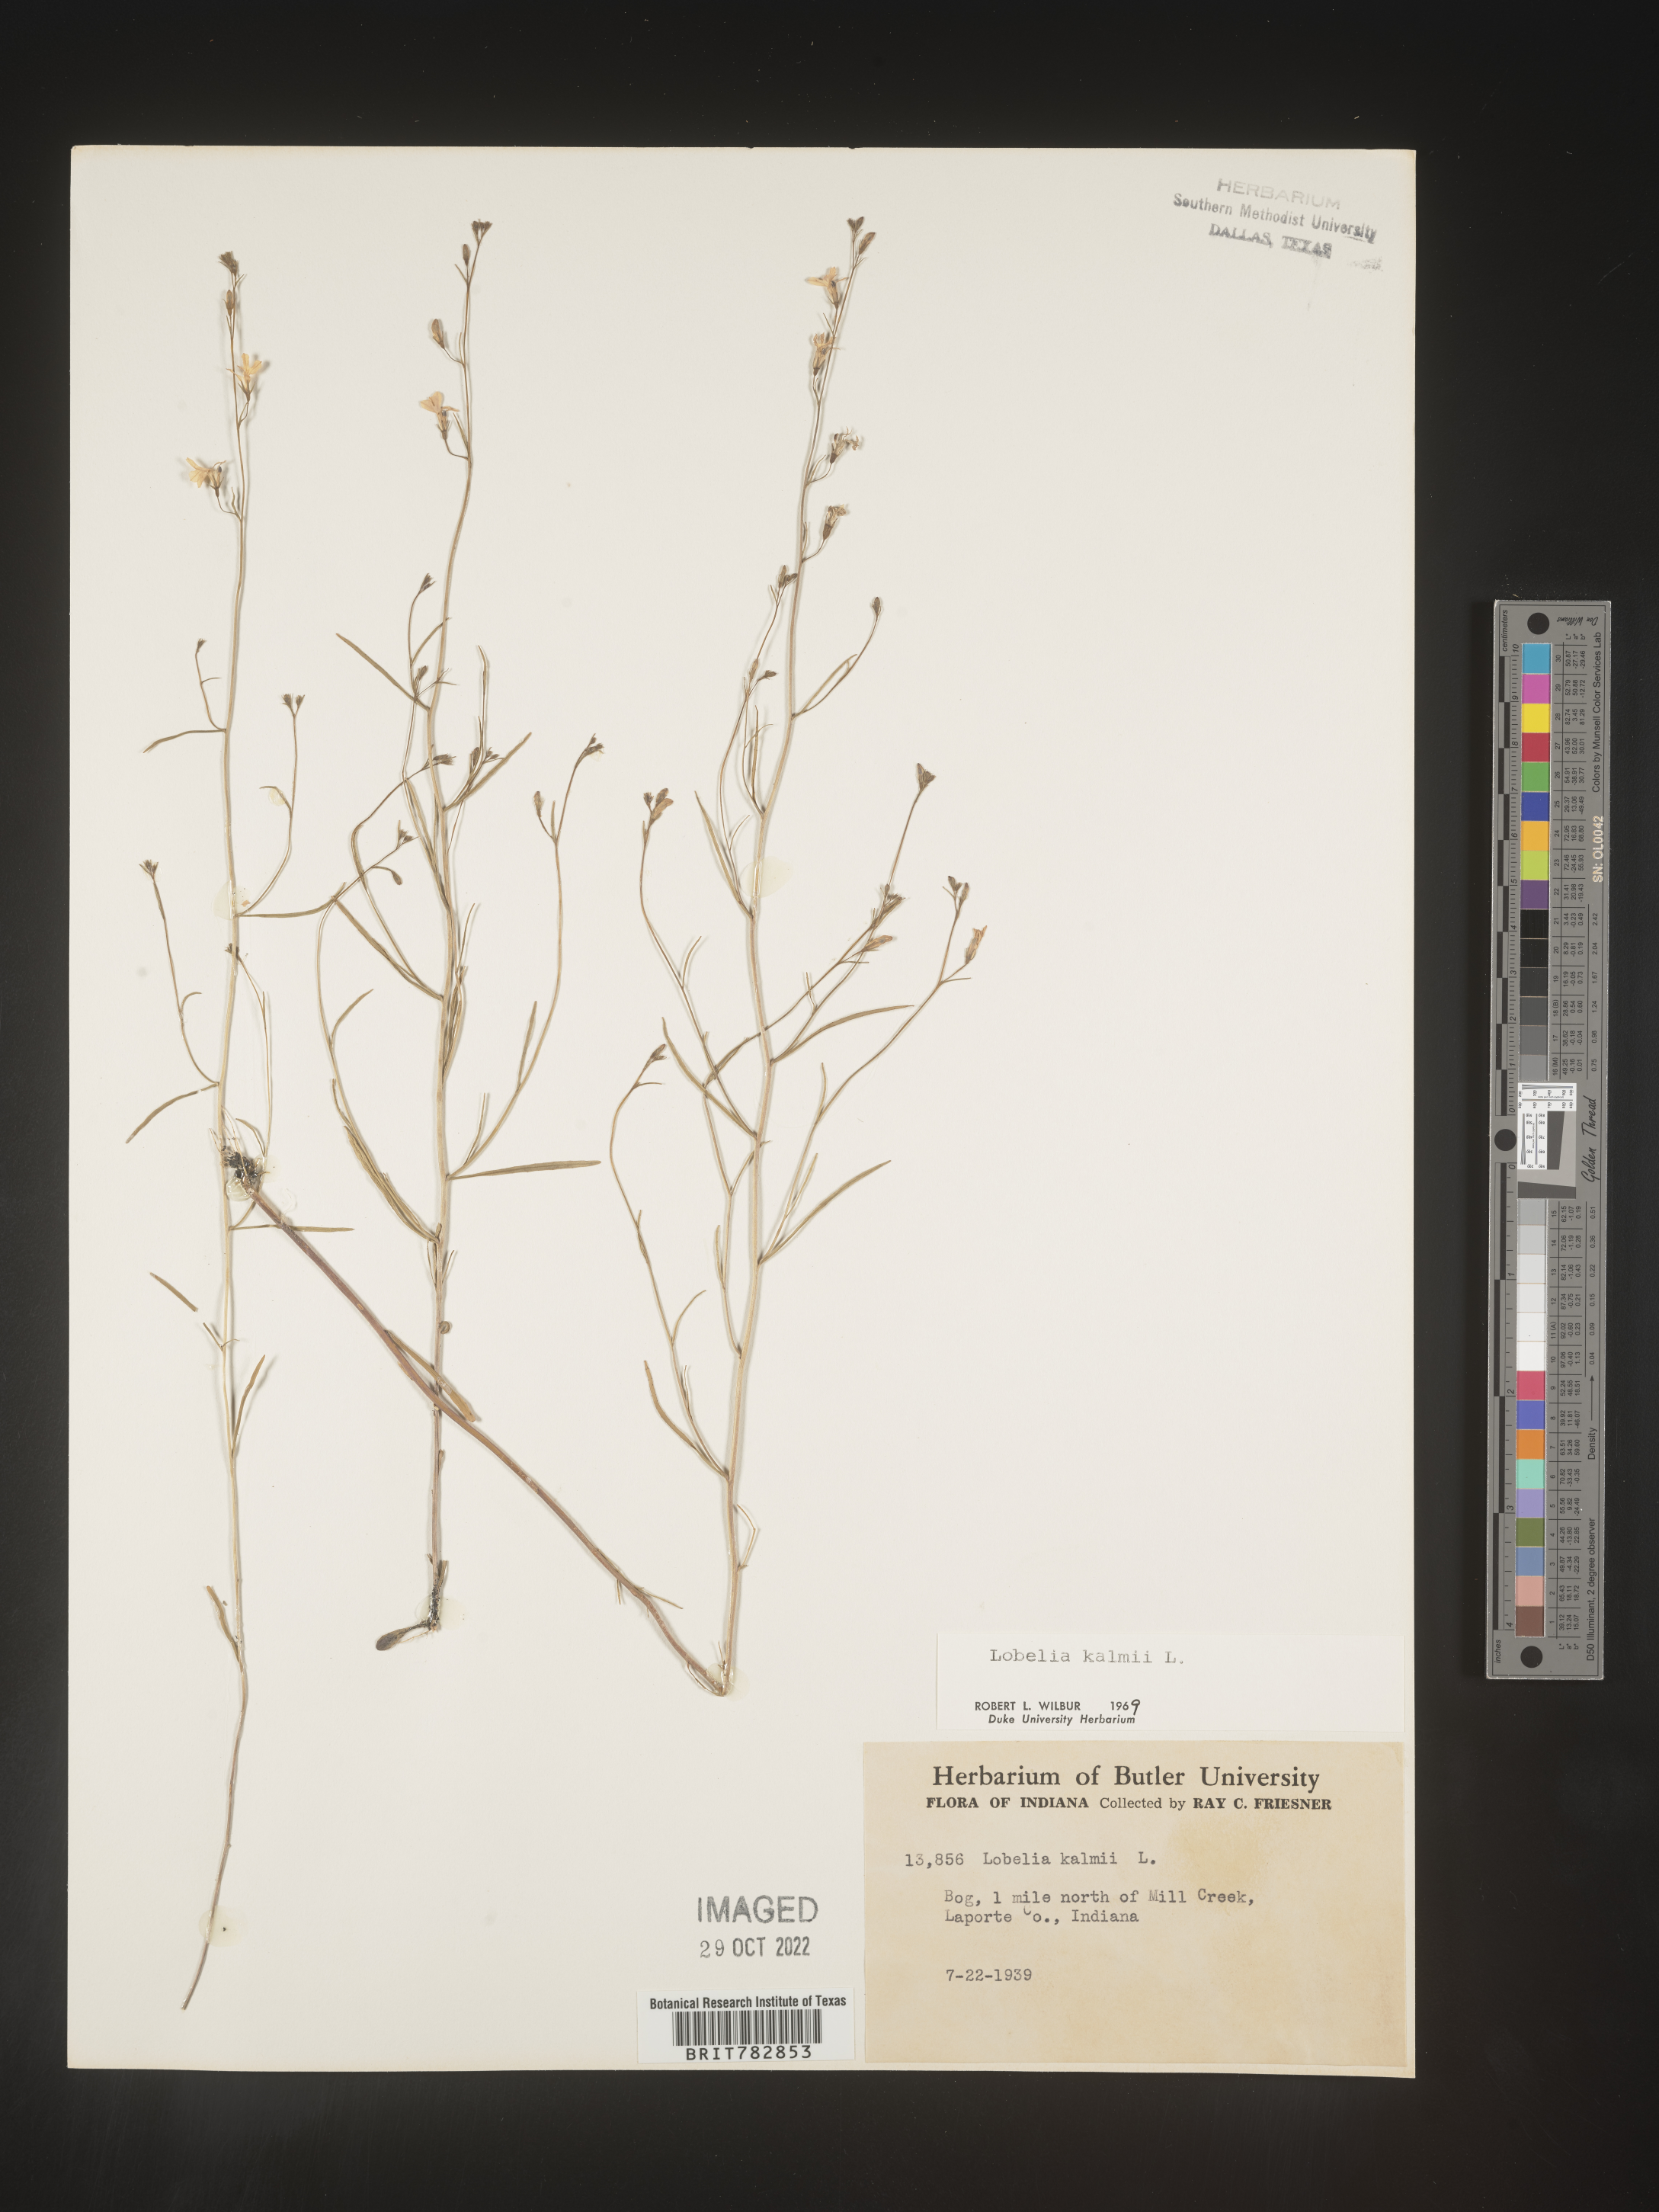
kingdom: Plantae
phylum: Tracheophyta
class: Magnoliopsida
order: Asterales
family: Campanulaceae
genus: Lobelia
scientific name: Lobelia
